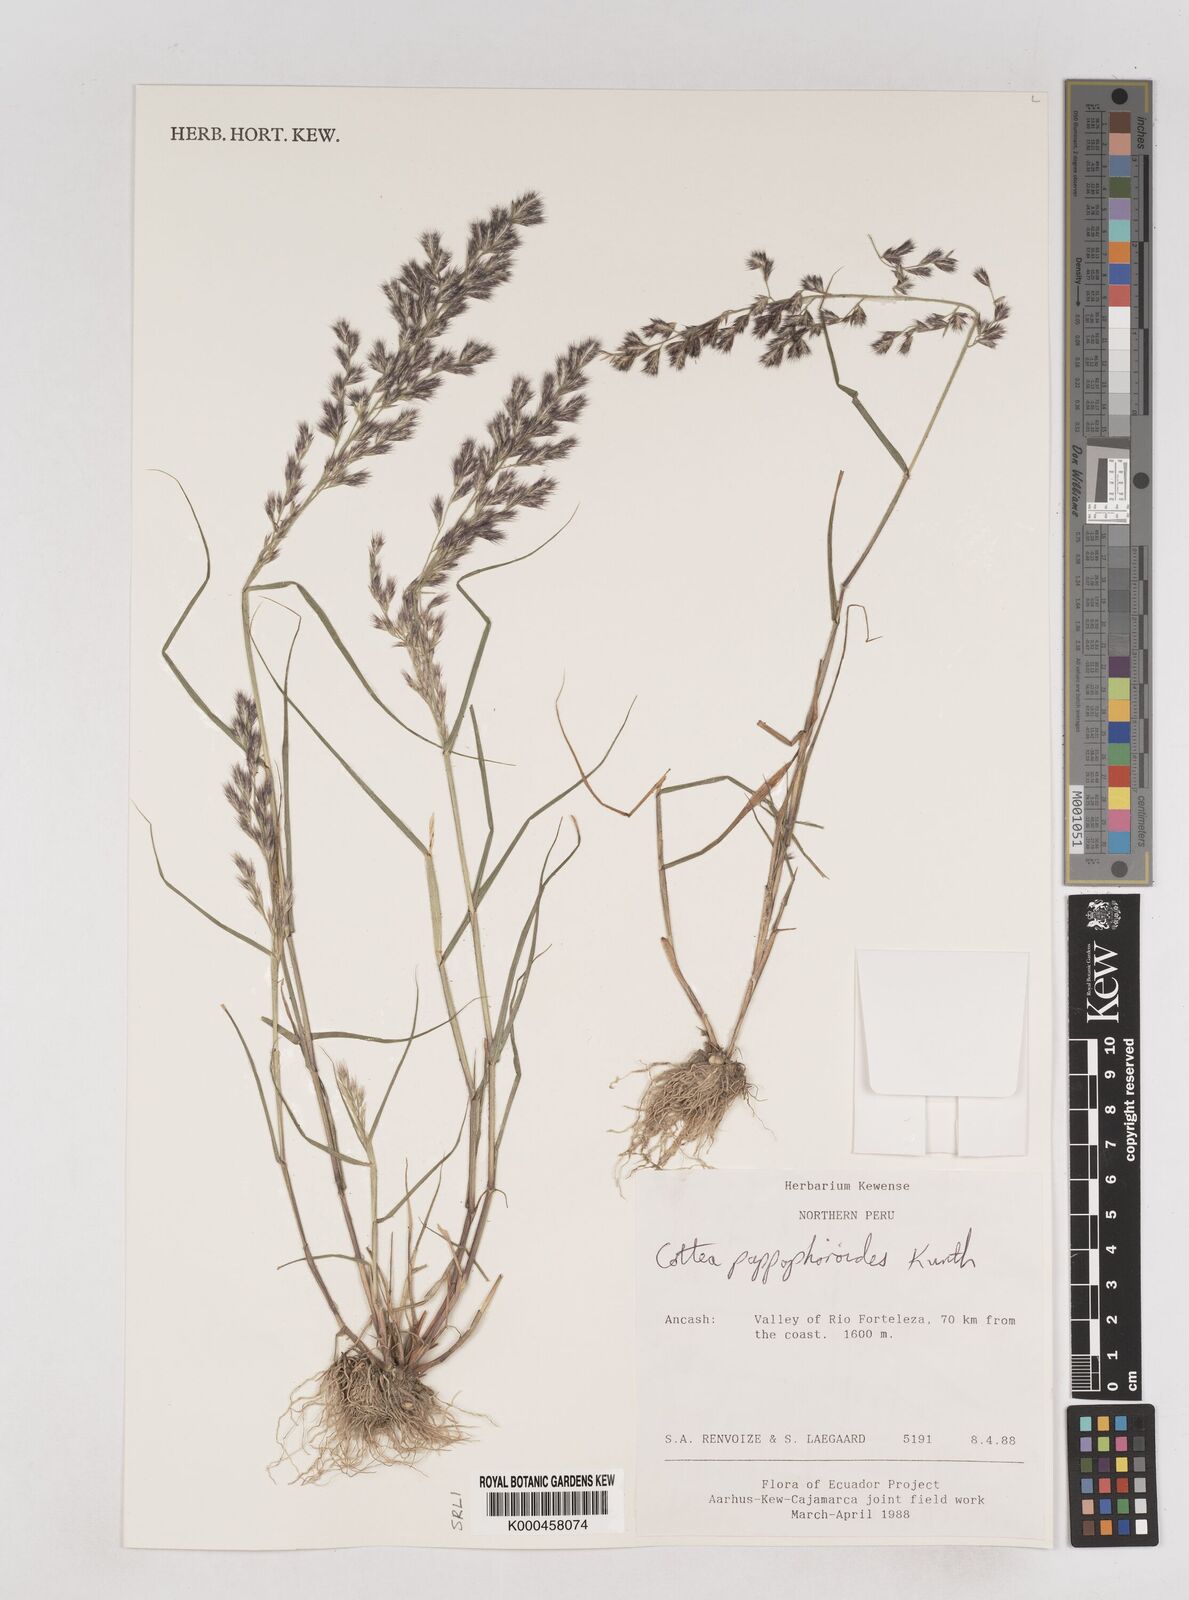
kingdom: Plantae
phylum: Tracheophyta
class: Liliopsida
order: Poales
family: Poaceae
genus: Cottea
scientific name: Cottea
